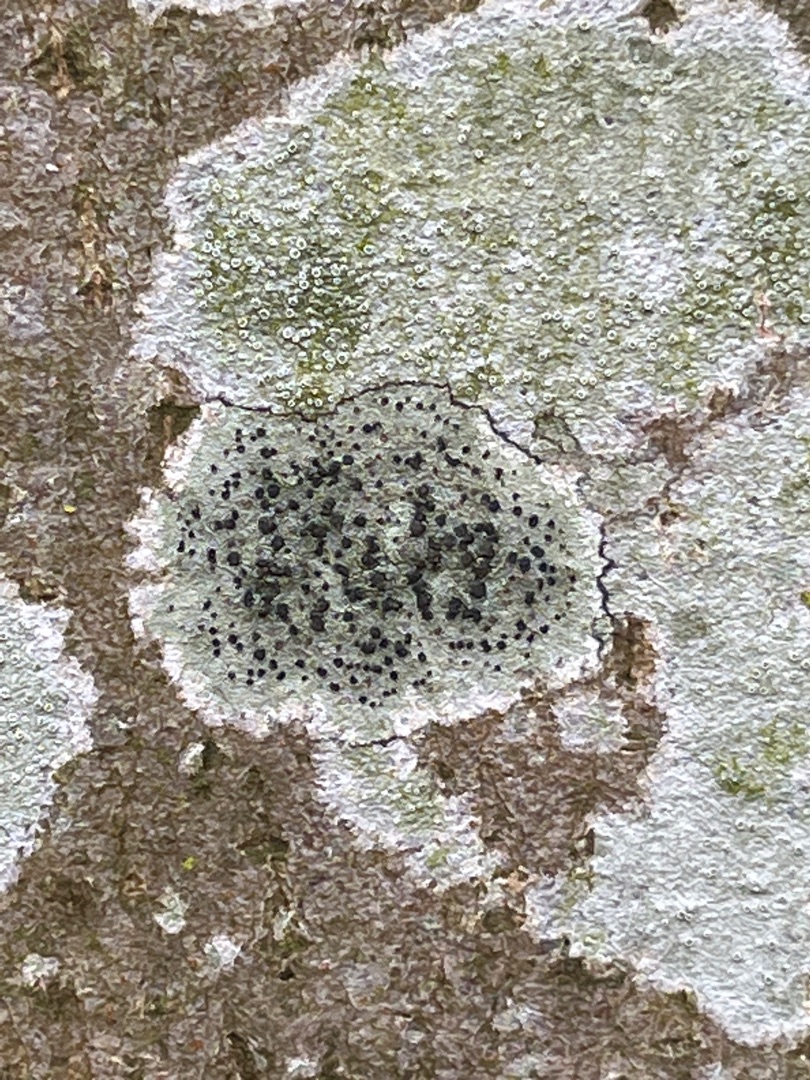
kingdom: Fungi
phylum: Ascomycota
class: Lecanoromycetes
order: Lecanorales
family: Lecanoraceae
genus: Lecidella
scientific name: Lecidella elaeochroma
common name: Grågrøn skivelav
